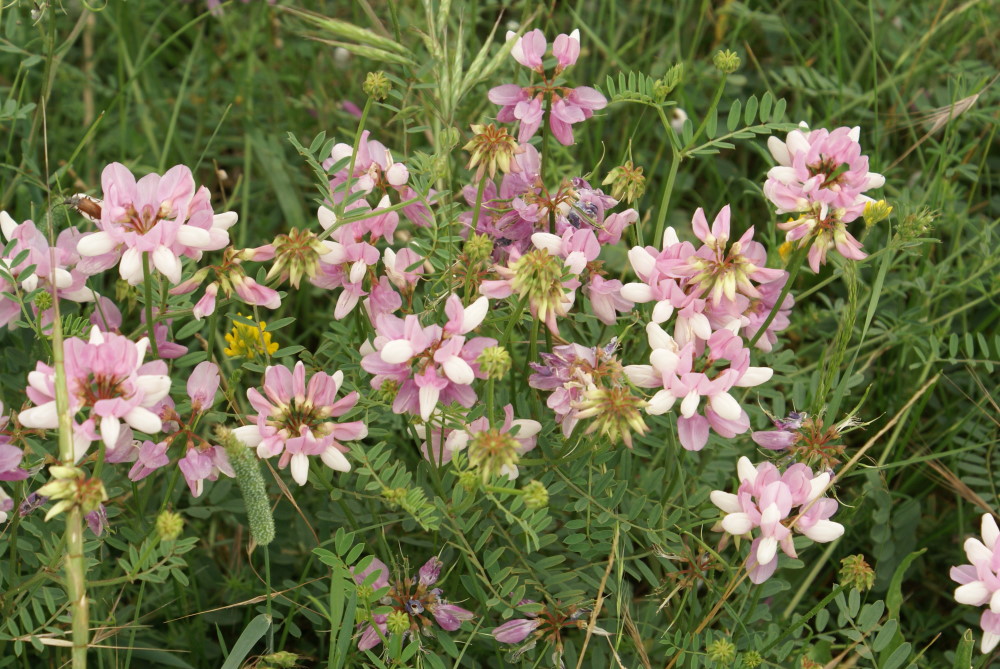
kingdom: Plantae
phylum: Tracheophyta
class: Magnoliopsida
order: Fabales
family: Fabaceae
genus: Coronilla
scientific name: Coronilla varia
